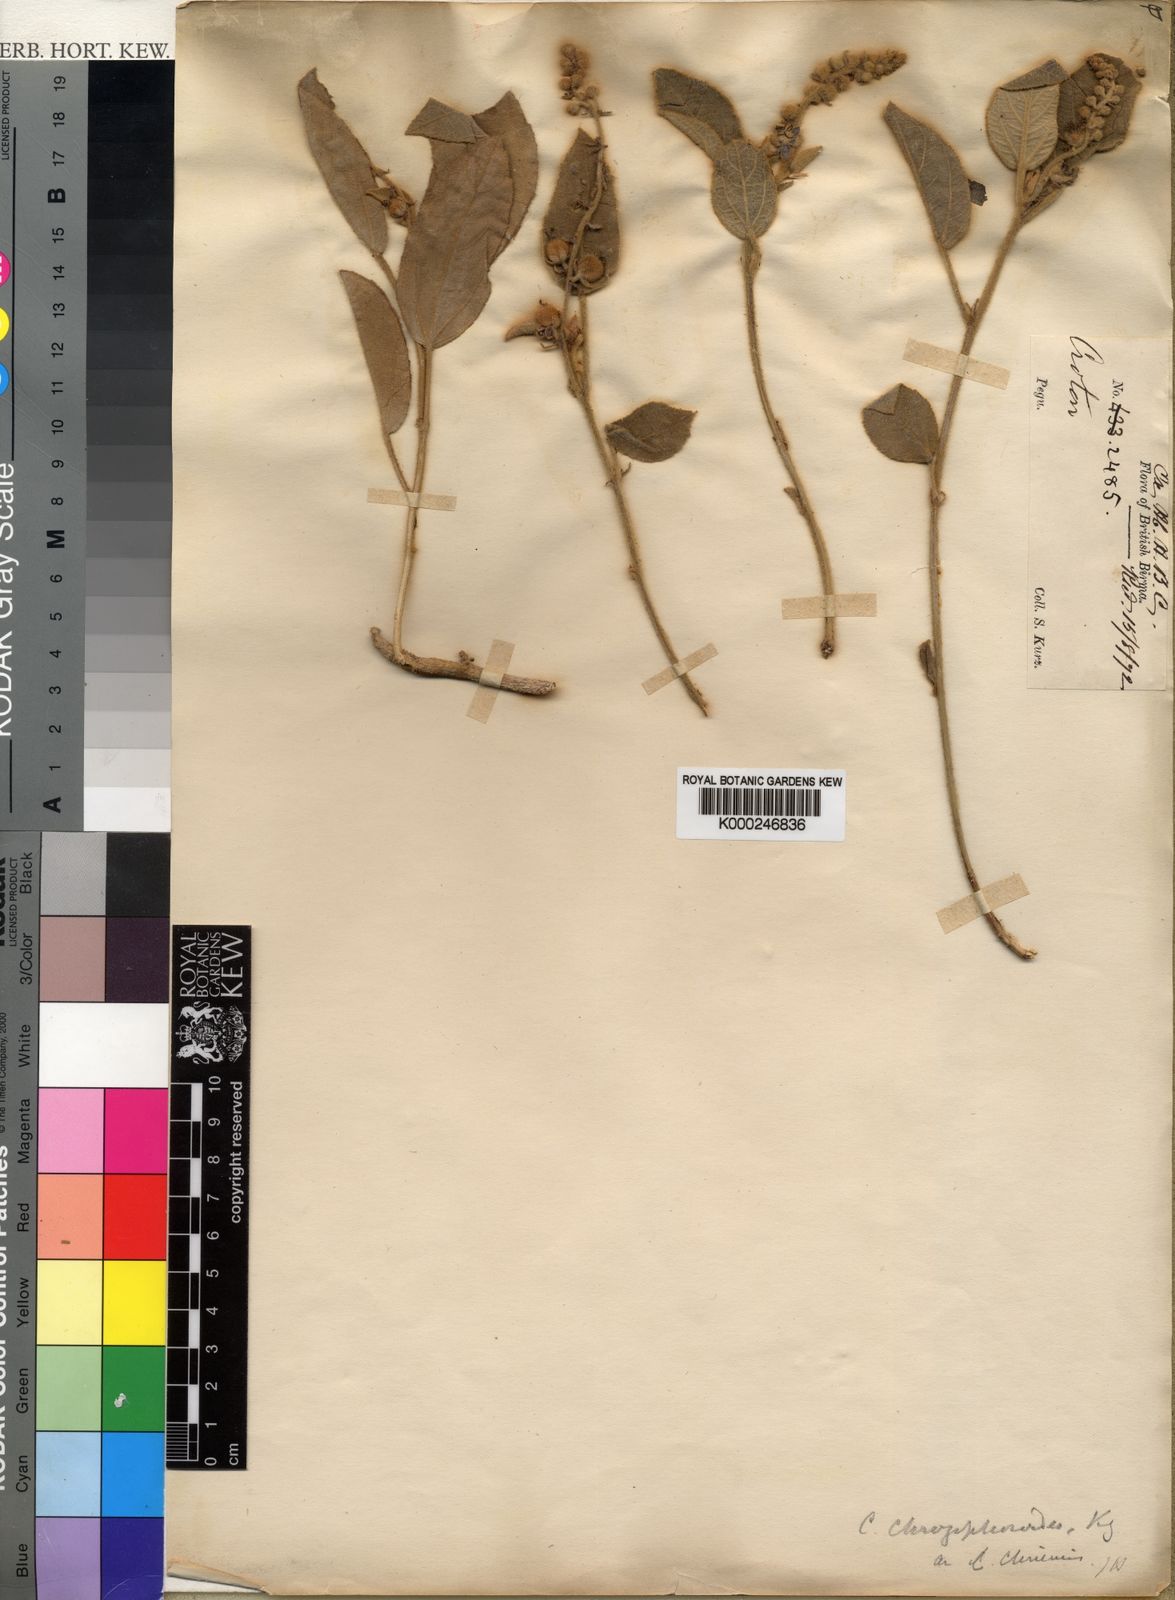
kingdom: Plantae
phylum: Tracheophyta
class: Magnoliopsida
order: Malpighiales
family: Euphorbiaceae
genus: Croton
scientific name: Croton crassifolius
